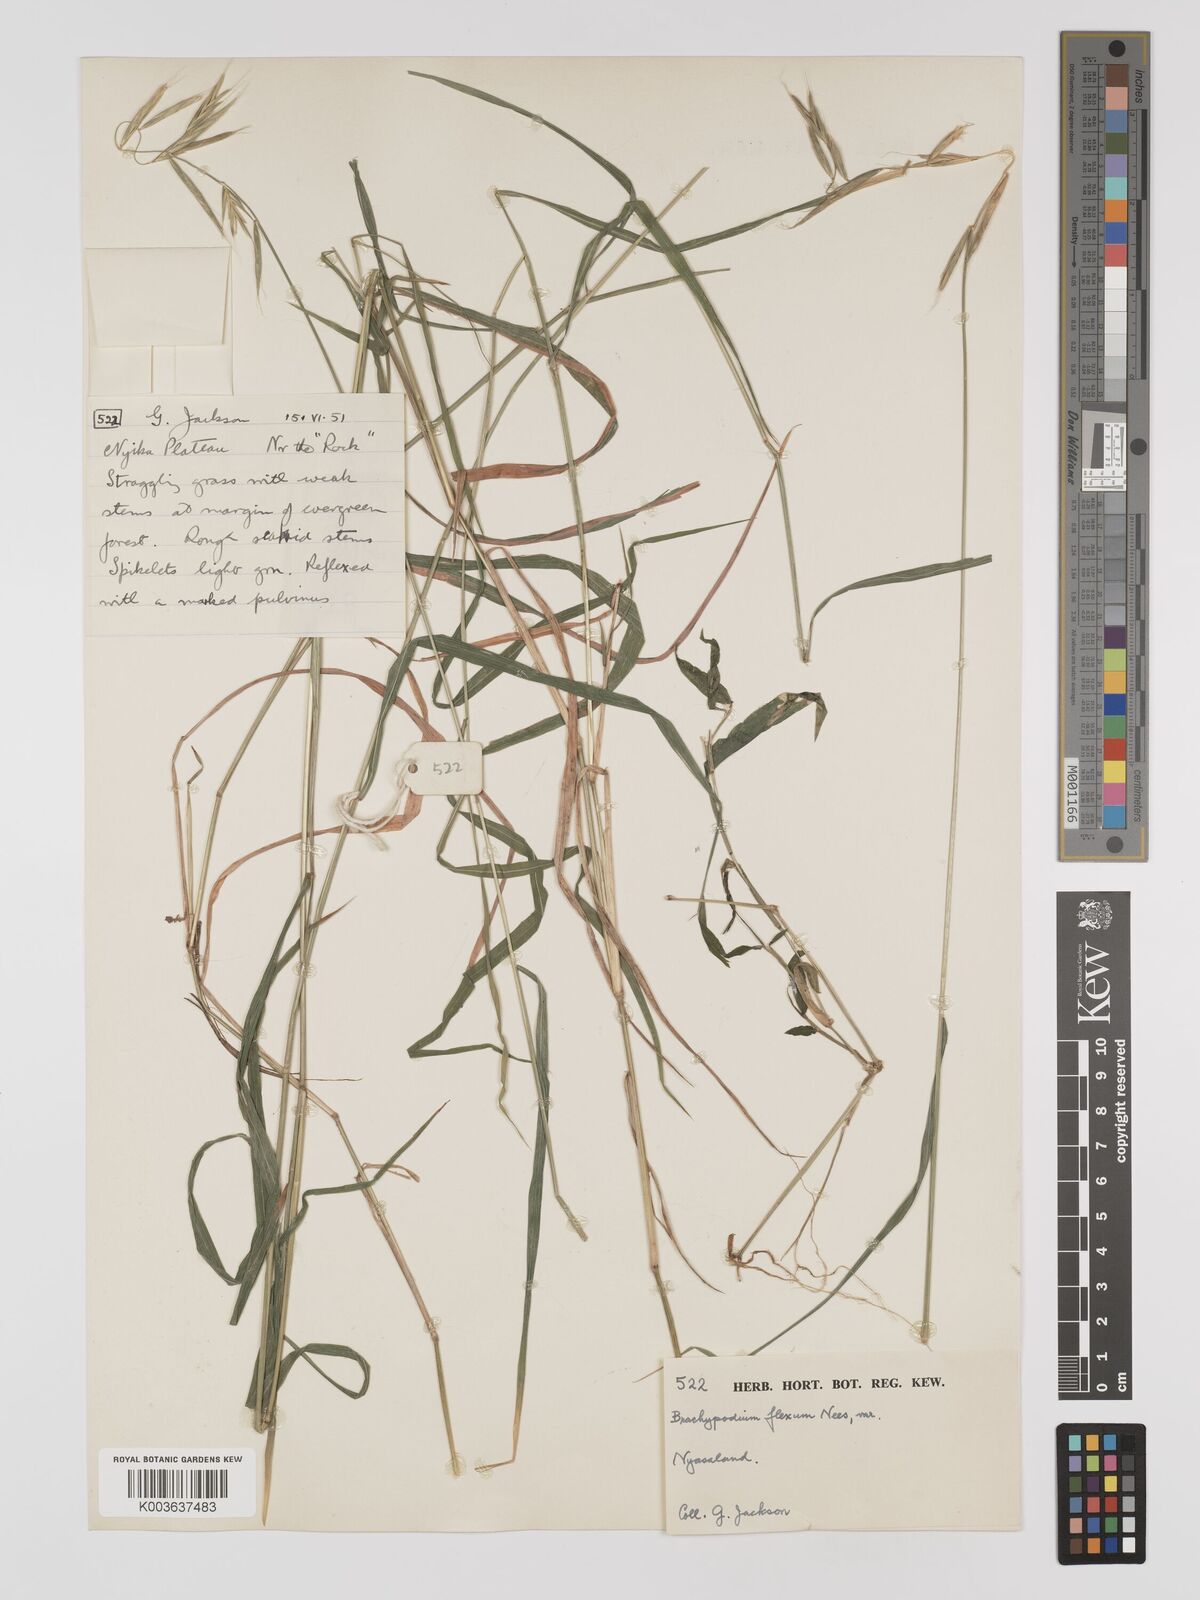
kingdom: Plantae
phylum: Tracheophyta
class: Liliopsida
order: Poales
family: Poaceae
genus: Brachypodium
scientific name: Brachypodium flexum
